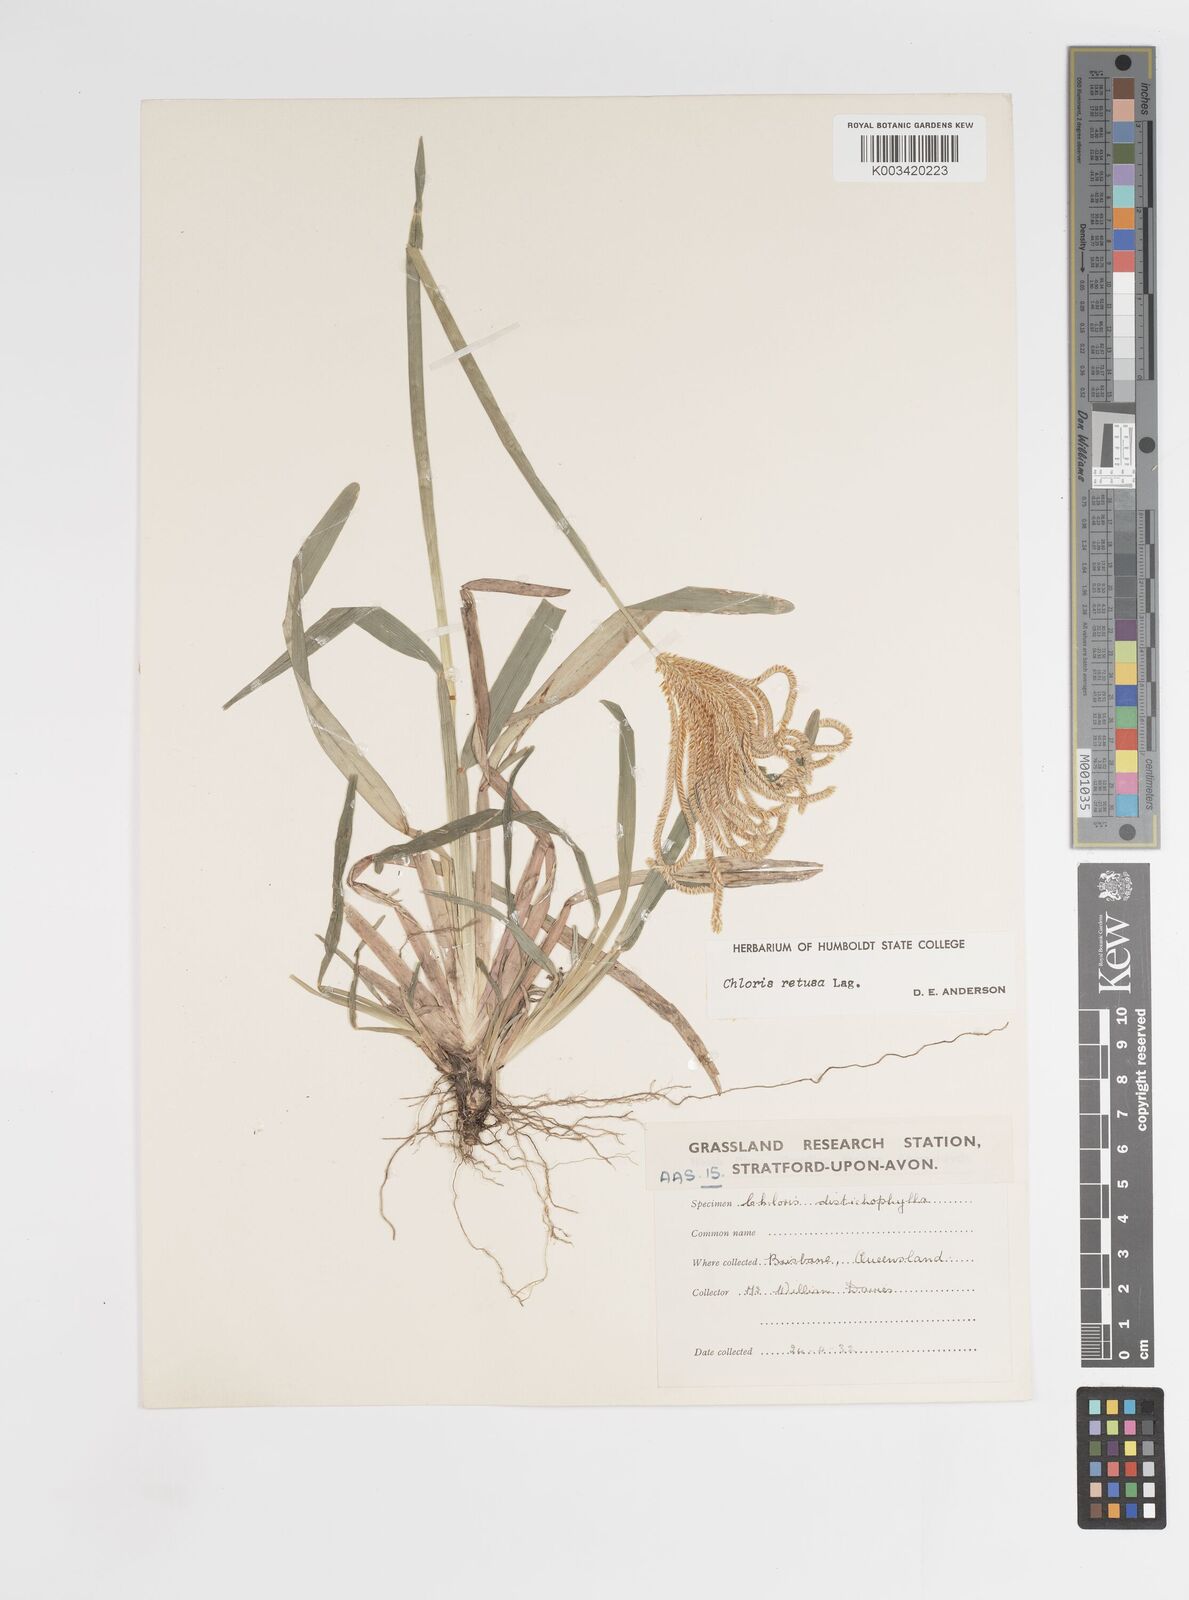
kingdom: Plantae
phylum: Tracheophyta
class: Liliopsida
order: Poales
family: Poaceae
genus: Eustachys
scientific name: Eustachys retusa
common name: Argentine fingergrass
